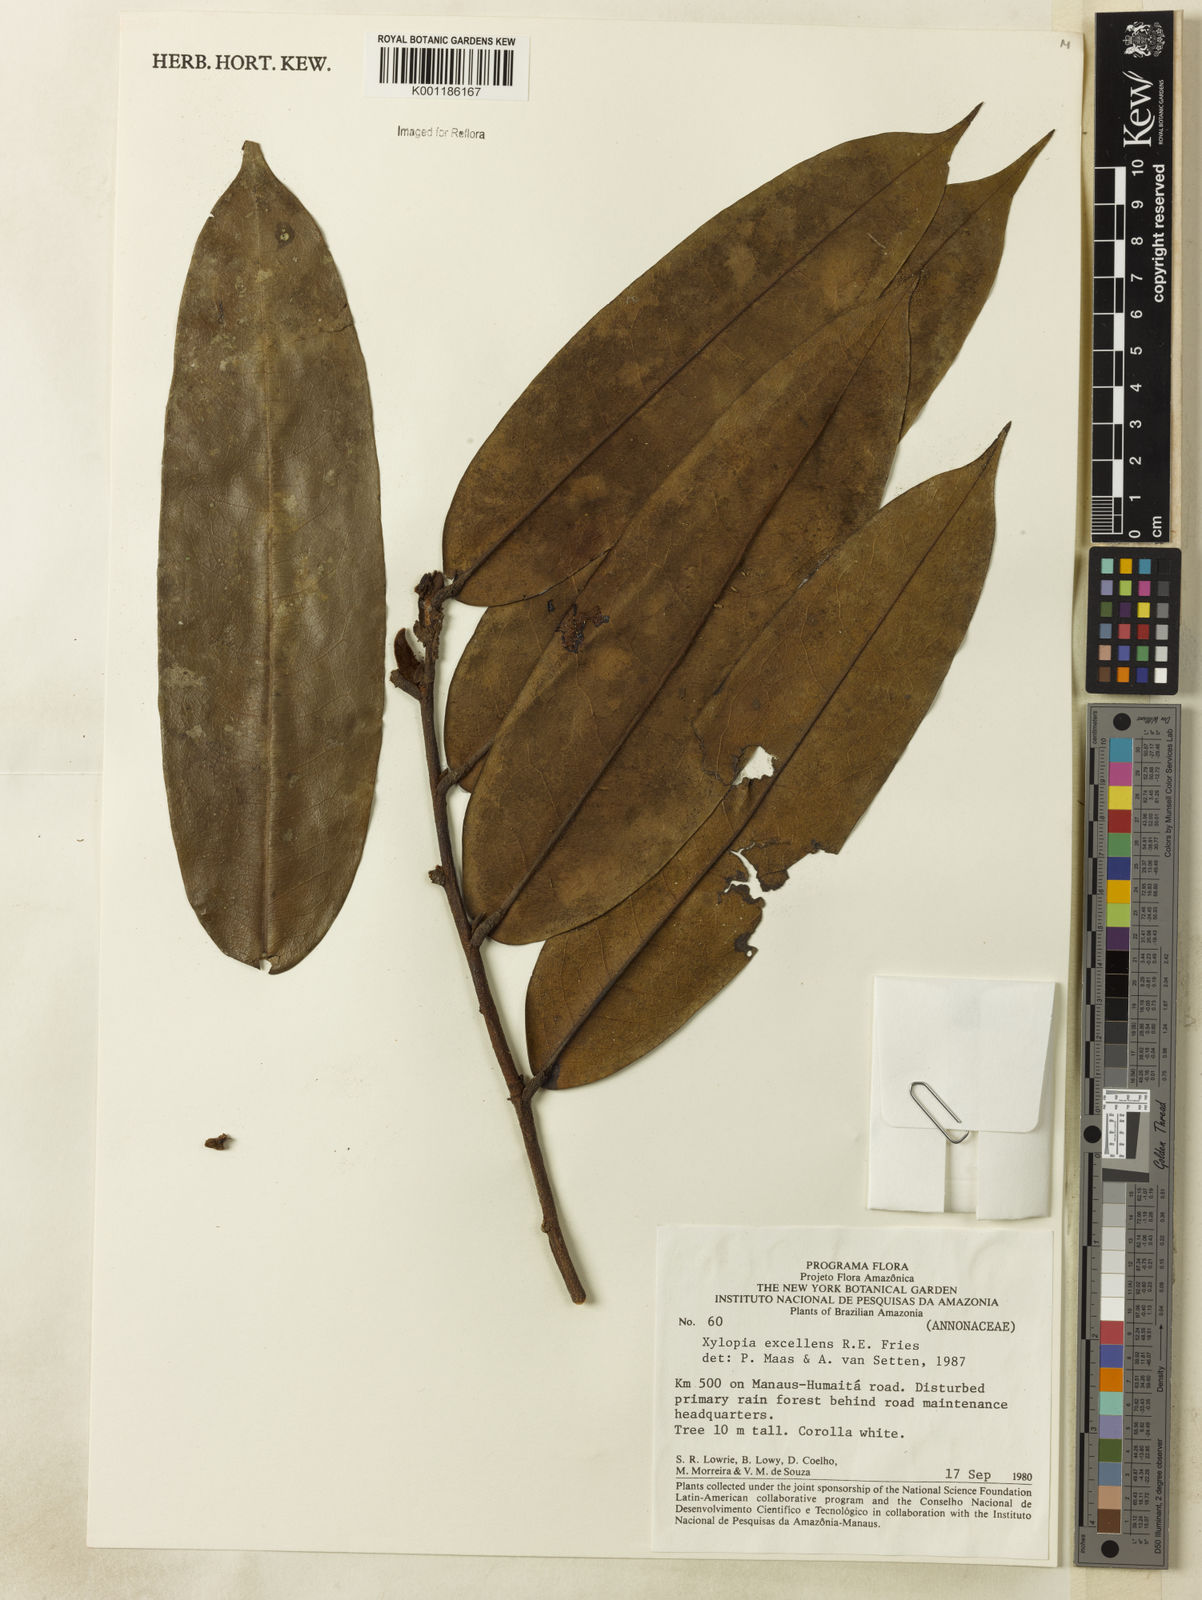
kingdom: Plantae
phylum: Tracheophyta
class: Magnoliopsida
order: Magnoliales
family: Annonaceae
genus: Xylopia
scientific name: Xylopia excellens
